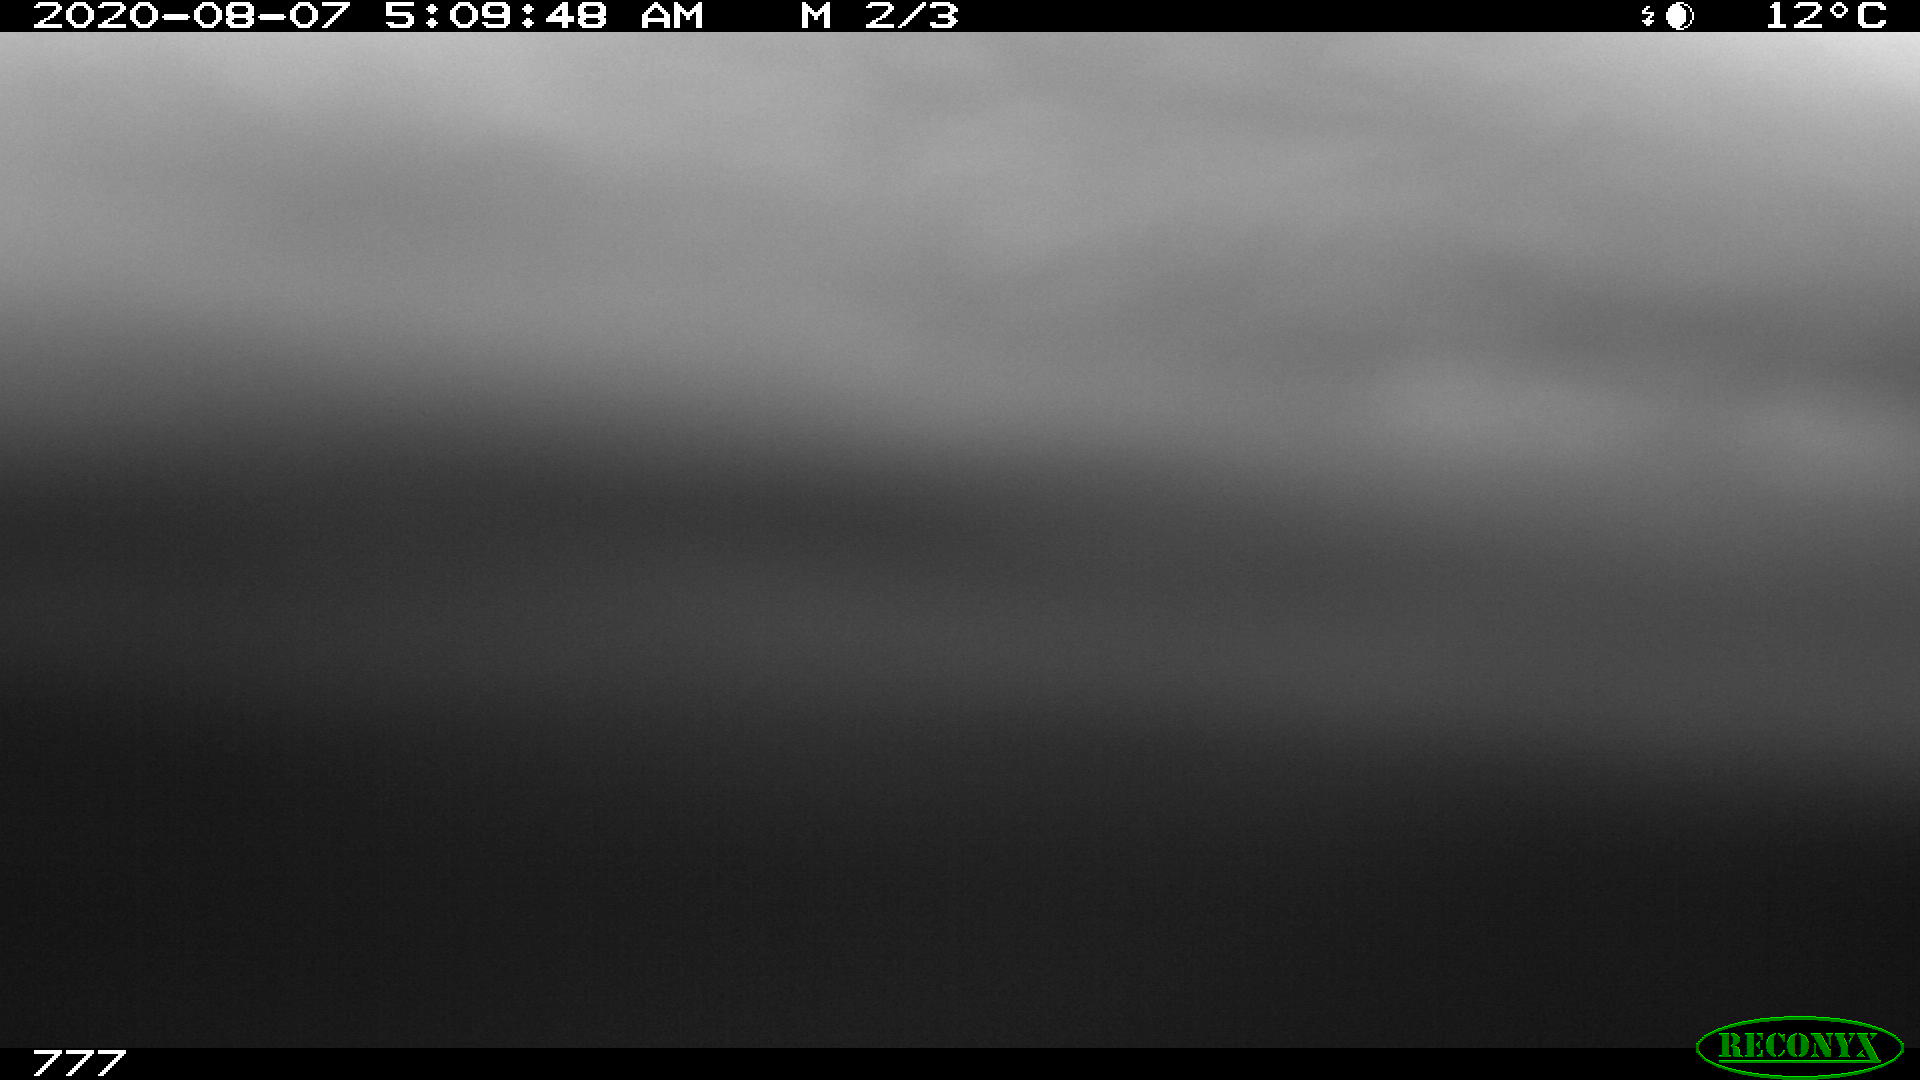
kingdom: Animalia
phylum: Chordata
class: Mammalia
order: Perissodactyla
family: Equidae
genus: Equus
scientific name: Equus caballus
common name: Horse
